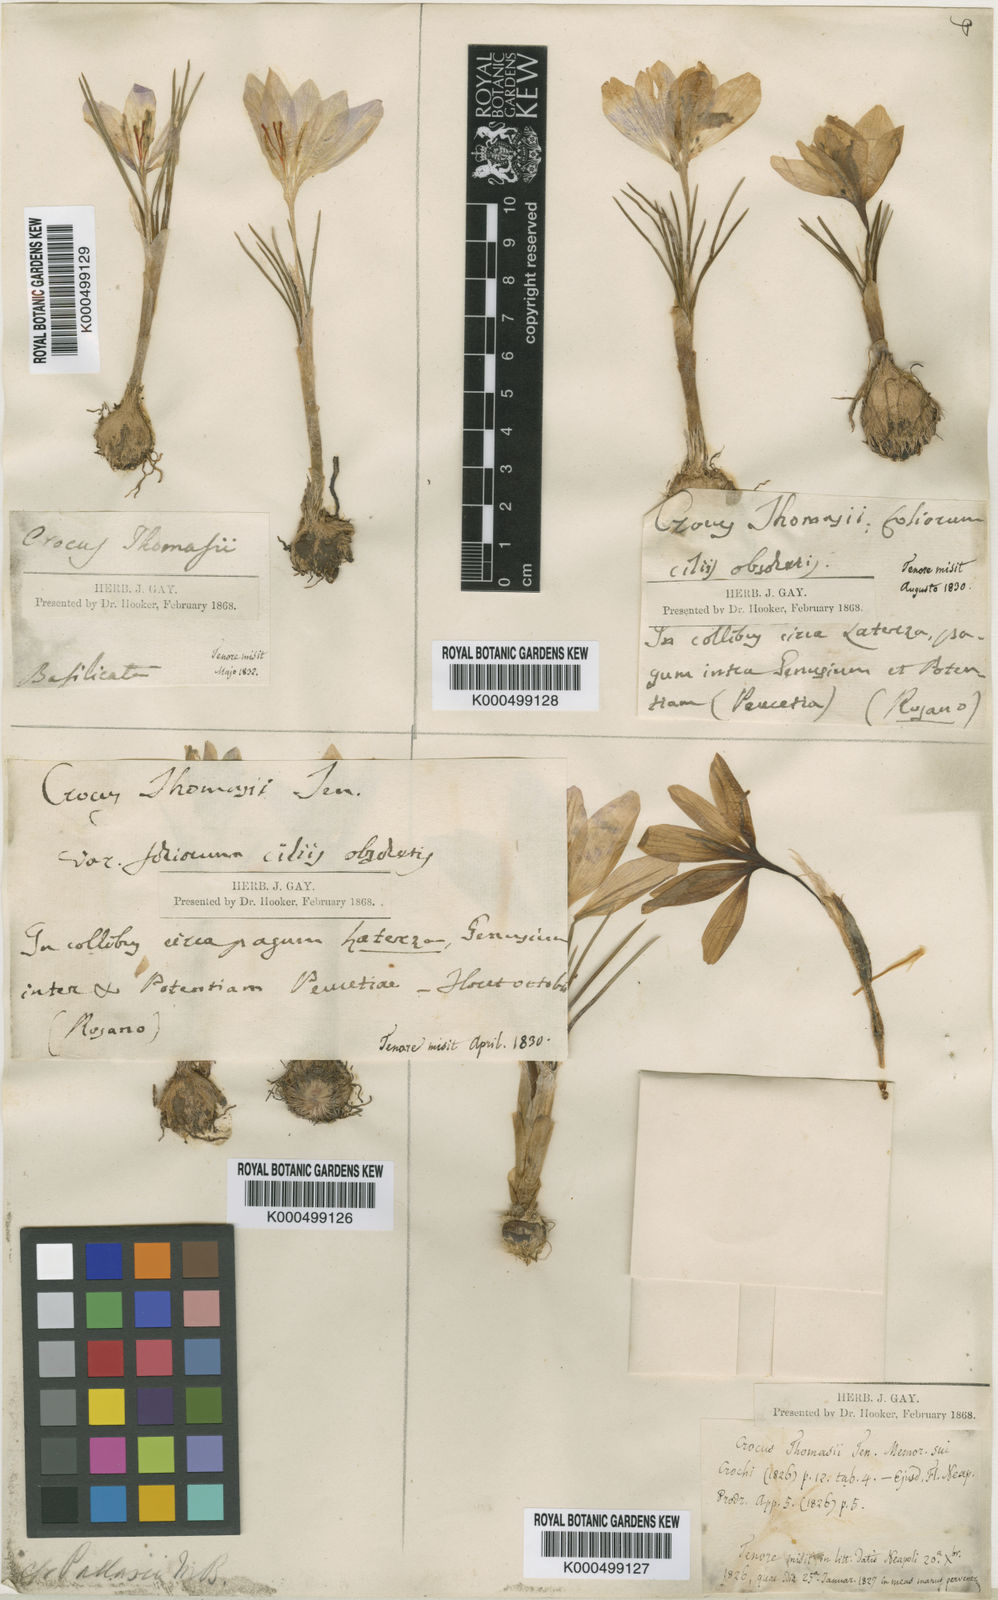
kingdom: Plantae
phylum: Tracheophyta
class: Liliopsida
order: Asparagales
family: Iridaceae
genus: Crocus
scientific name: Crocus thomasii
